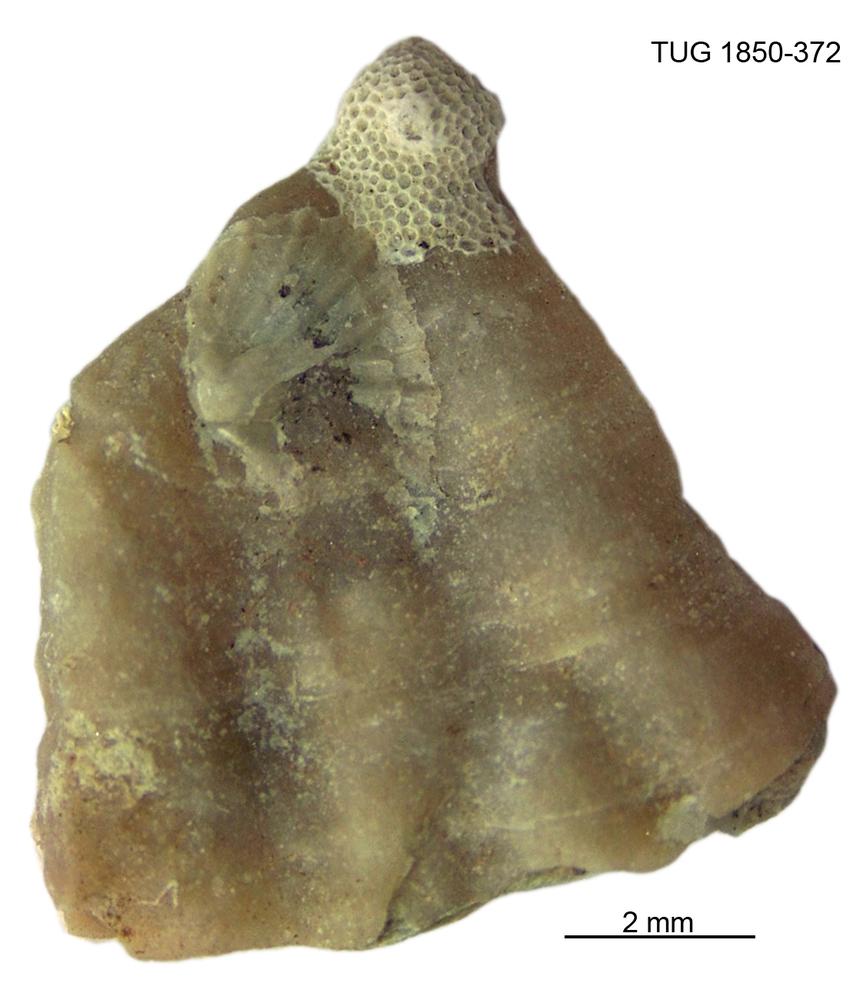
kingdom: Animalia
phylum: Bryozoa
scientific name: Bryozoa
